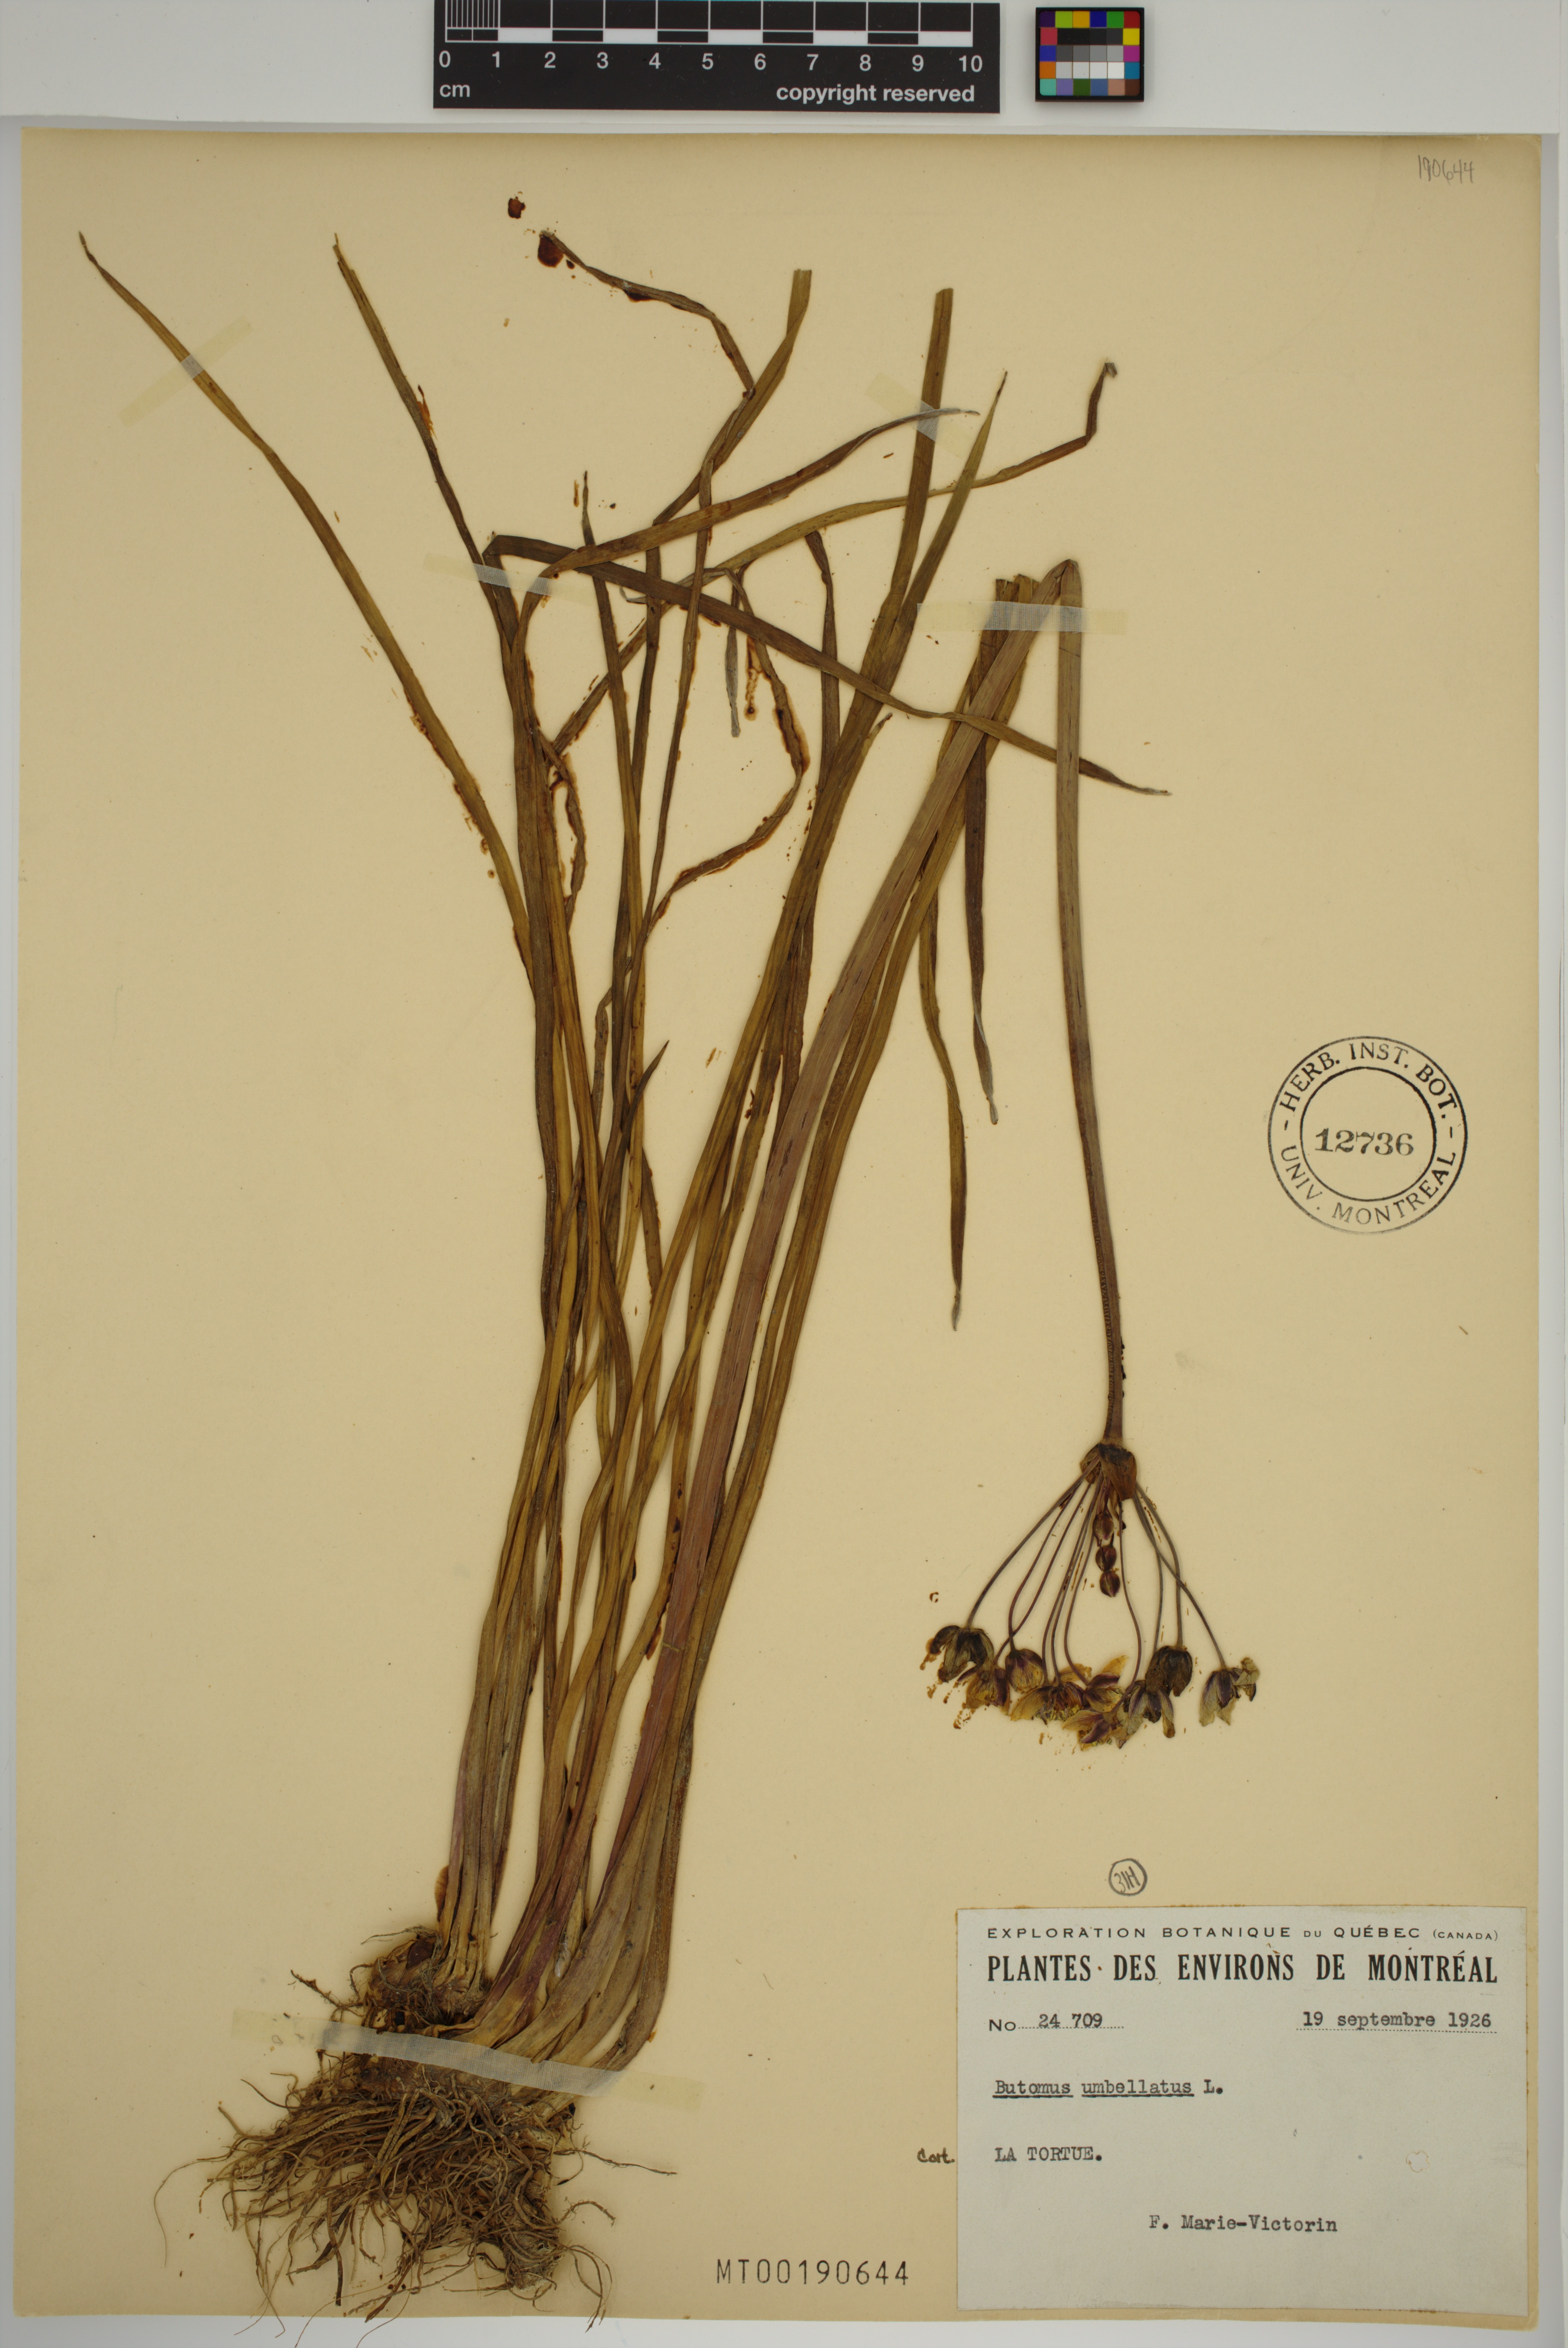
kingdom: Plantae
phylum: Tracheophyta
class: Liliopsida
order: Alismatales
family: Butomaceae
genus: Butomus
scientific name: Butomus umbellatus
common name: Flowering-rush
